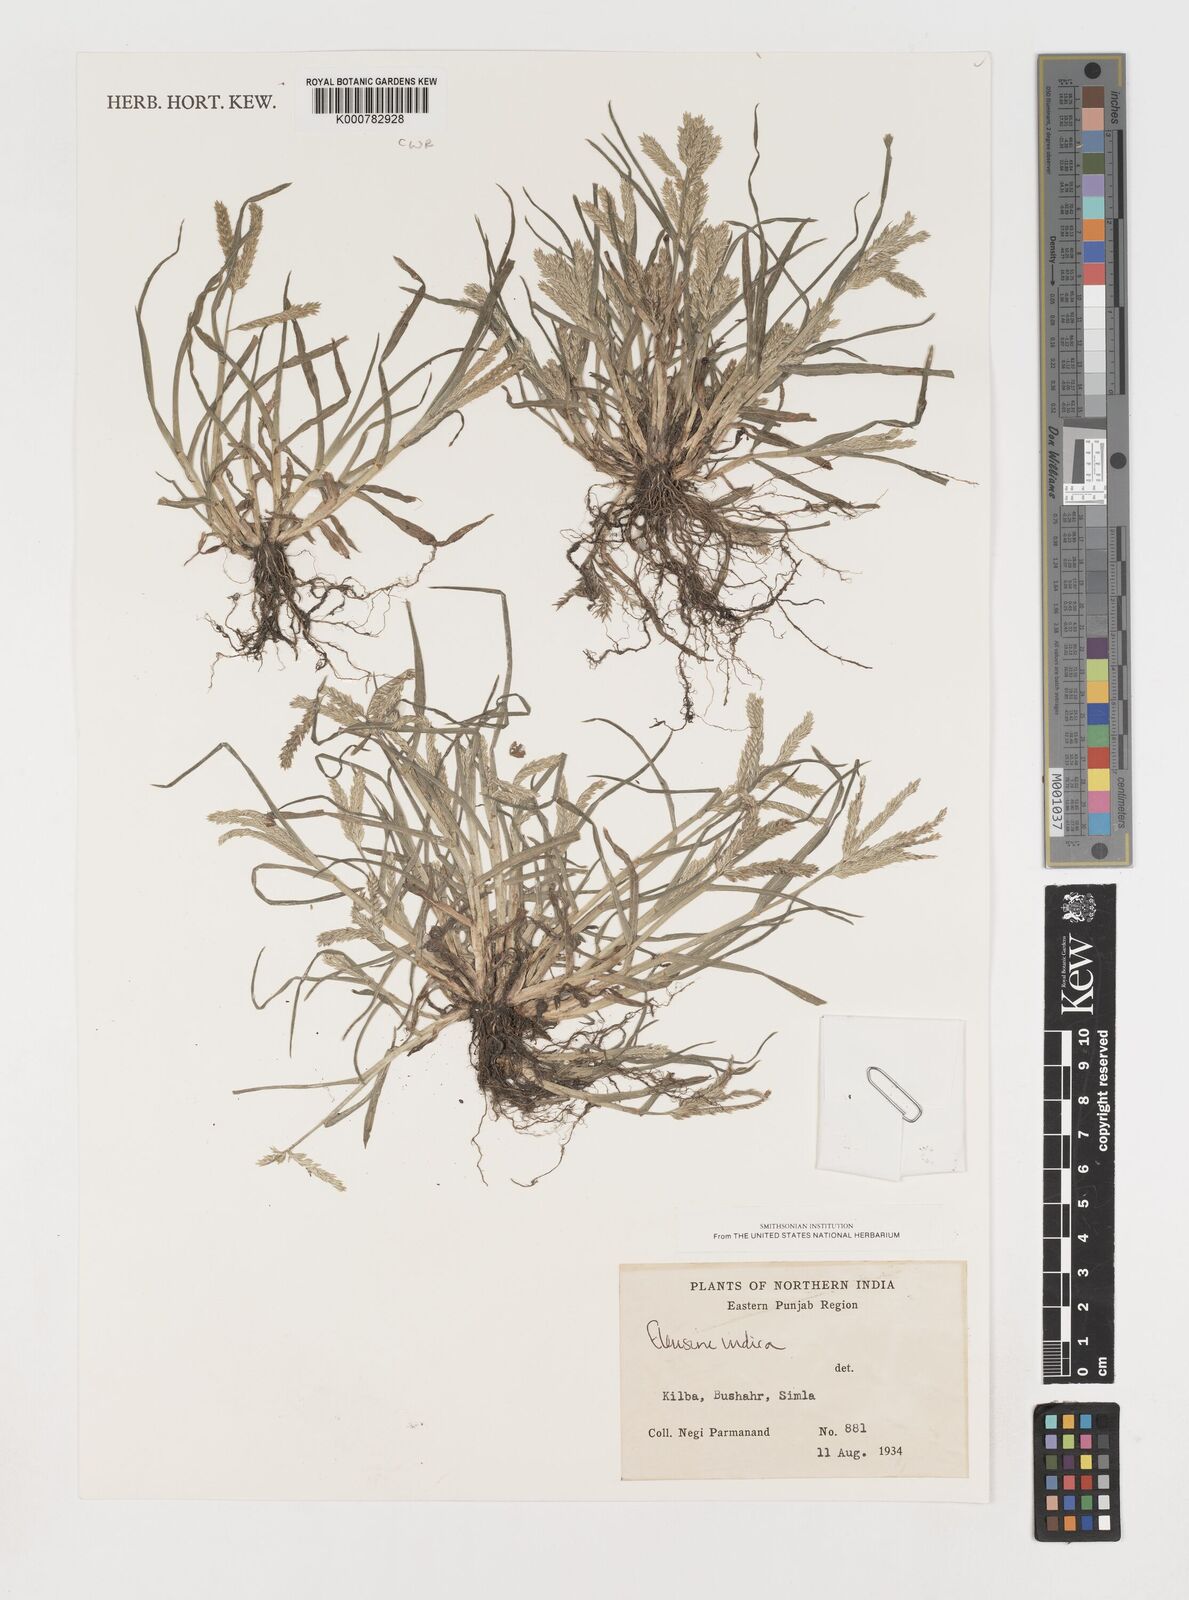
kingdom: Plantae
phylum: Tracheophyta
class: Liliopsida
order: Poales
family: Poaceae
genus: Eleusine
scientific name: Eleusine indica
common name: Yard-grass
